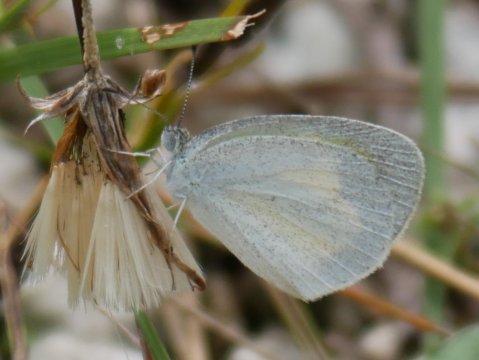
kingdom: Animalia
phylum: Arthropoda
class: Insecta
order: Lepidoptera
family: Pieridae
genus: Eurema
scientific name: Eurema daira
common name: Barred Yellow
